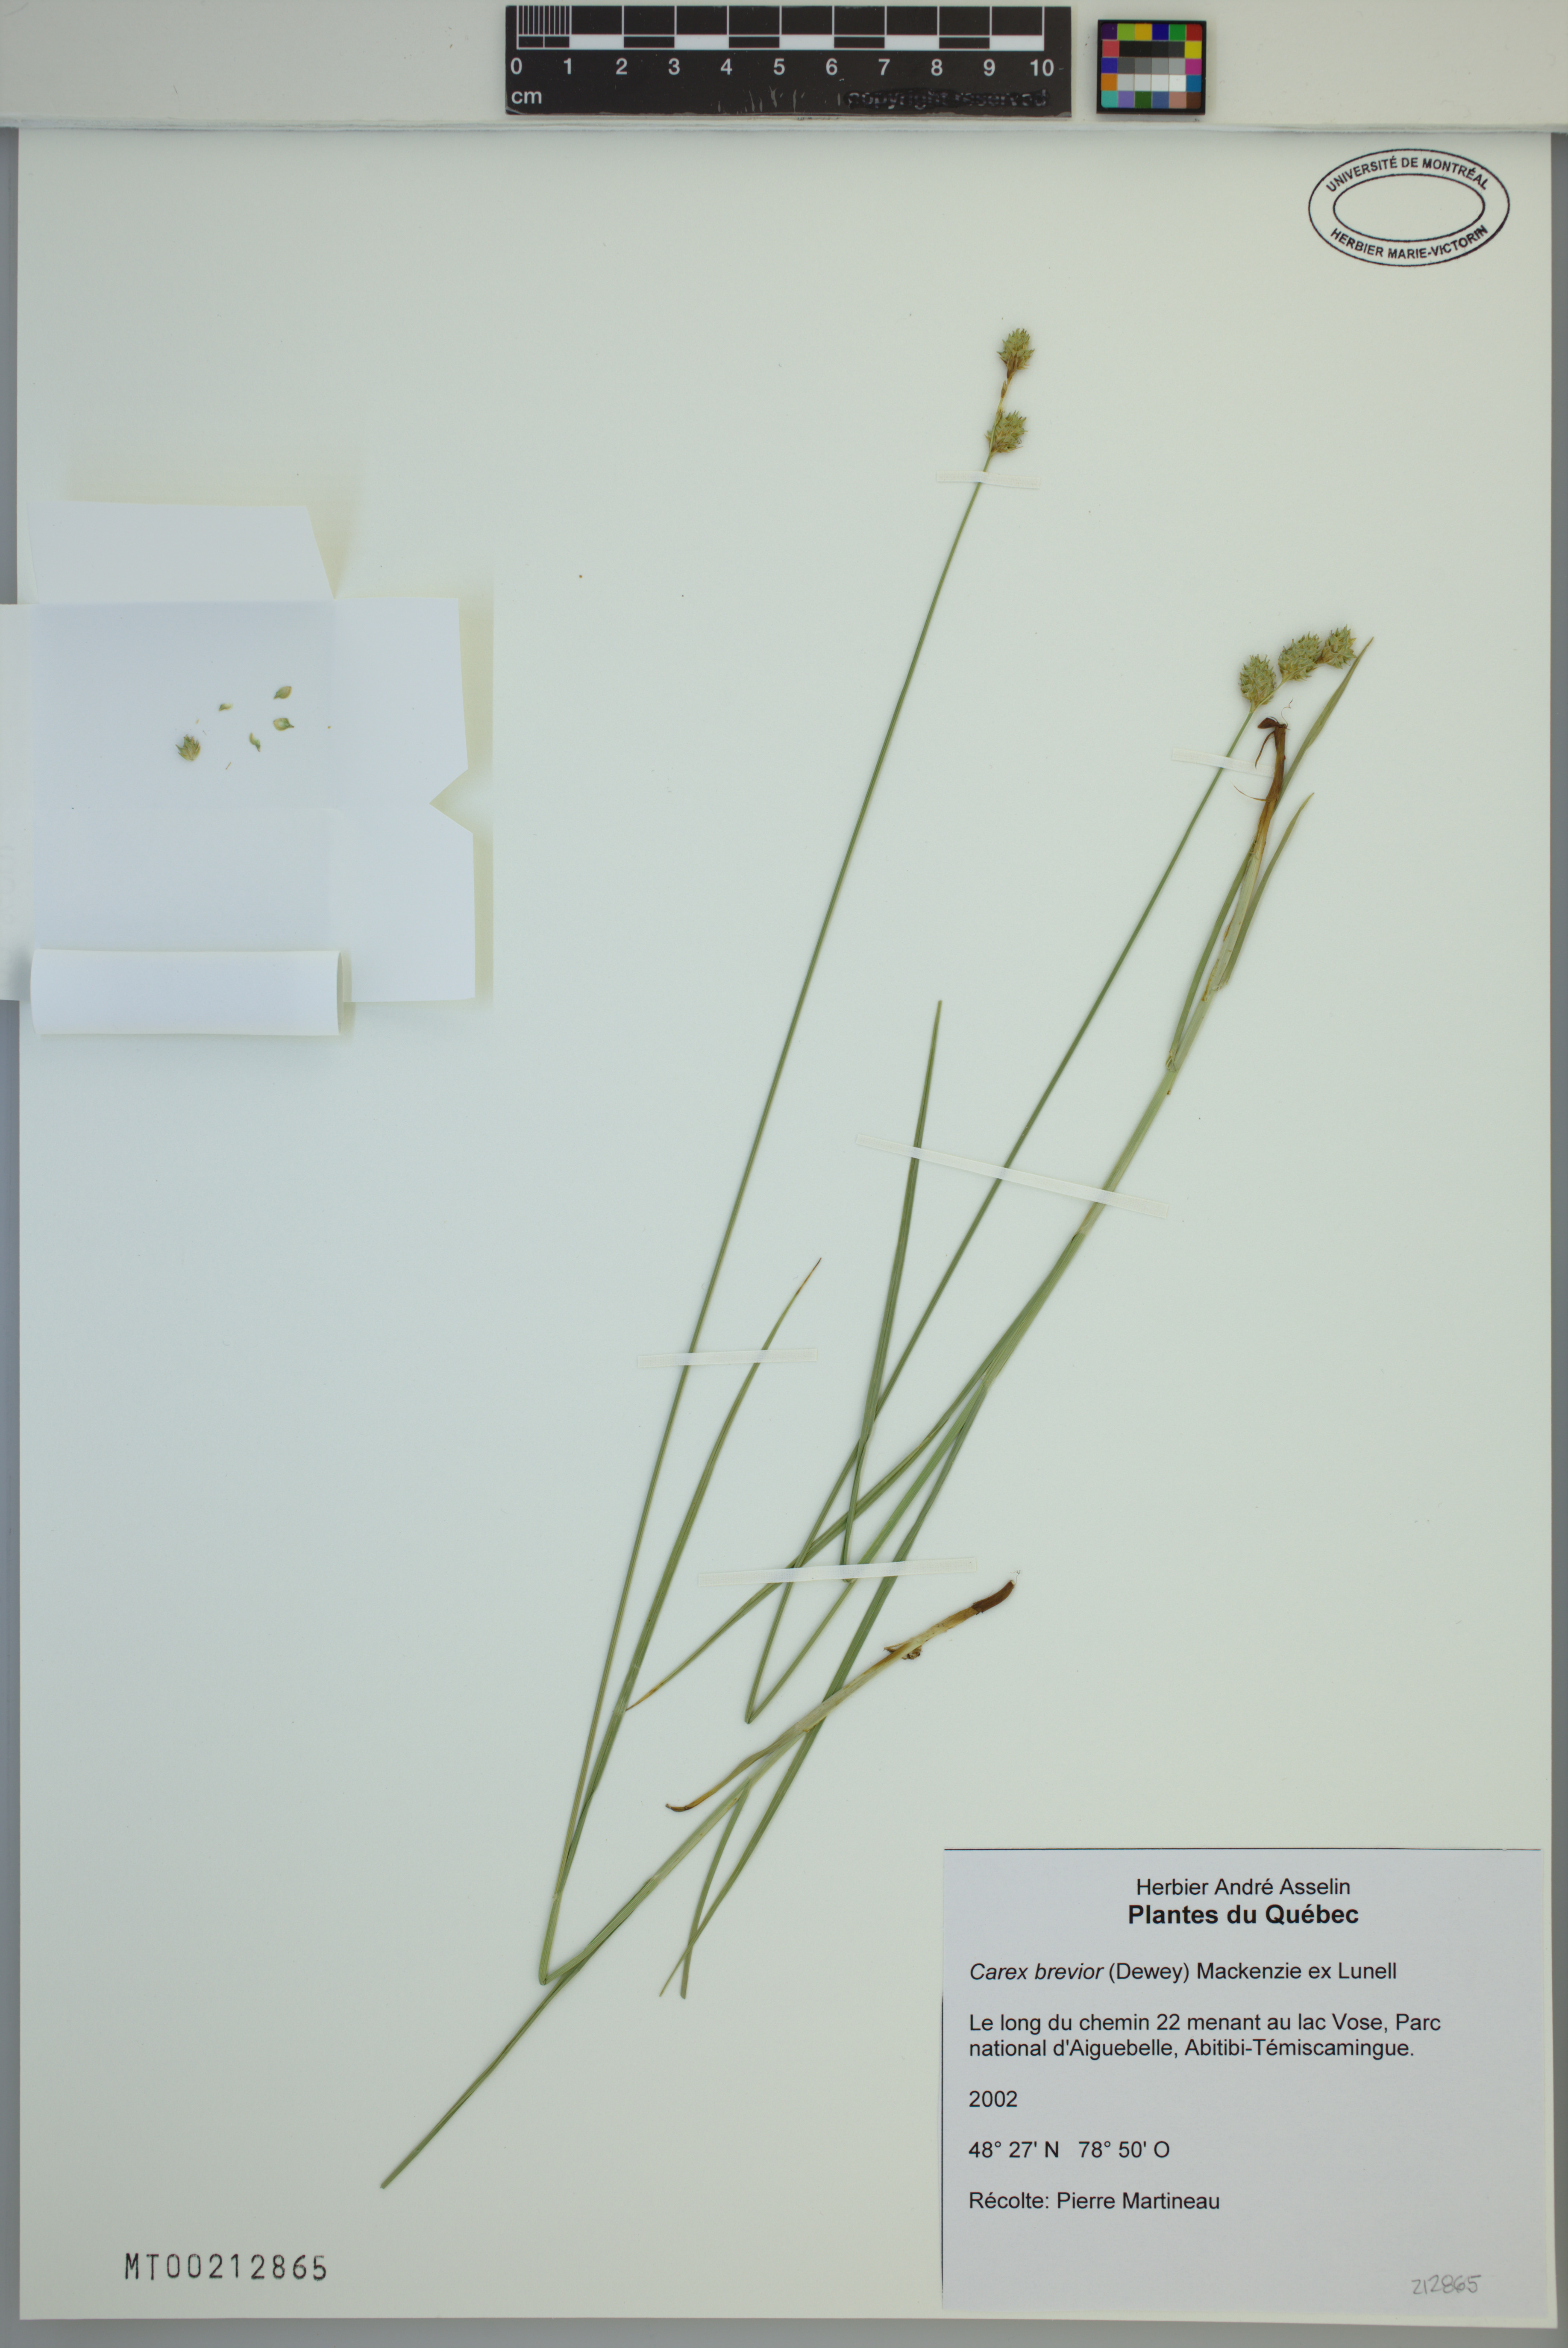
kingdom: Plantae
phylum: Tracheophyta
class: Liliopsida
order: Poales
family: Cyperaceae
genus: Carex
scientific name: Carex brevior
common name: Brevior sedge
